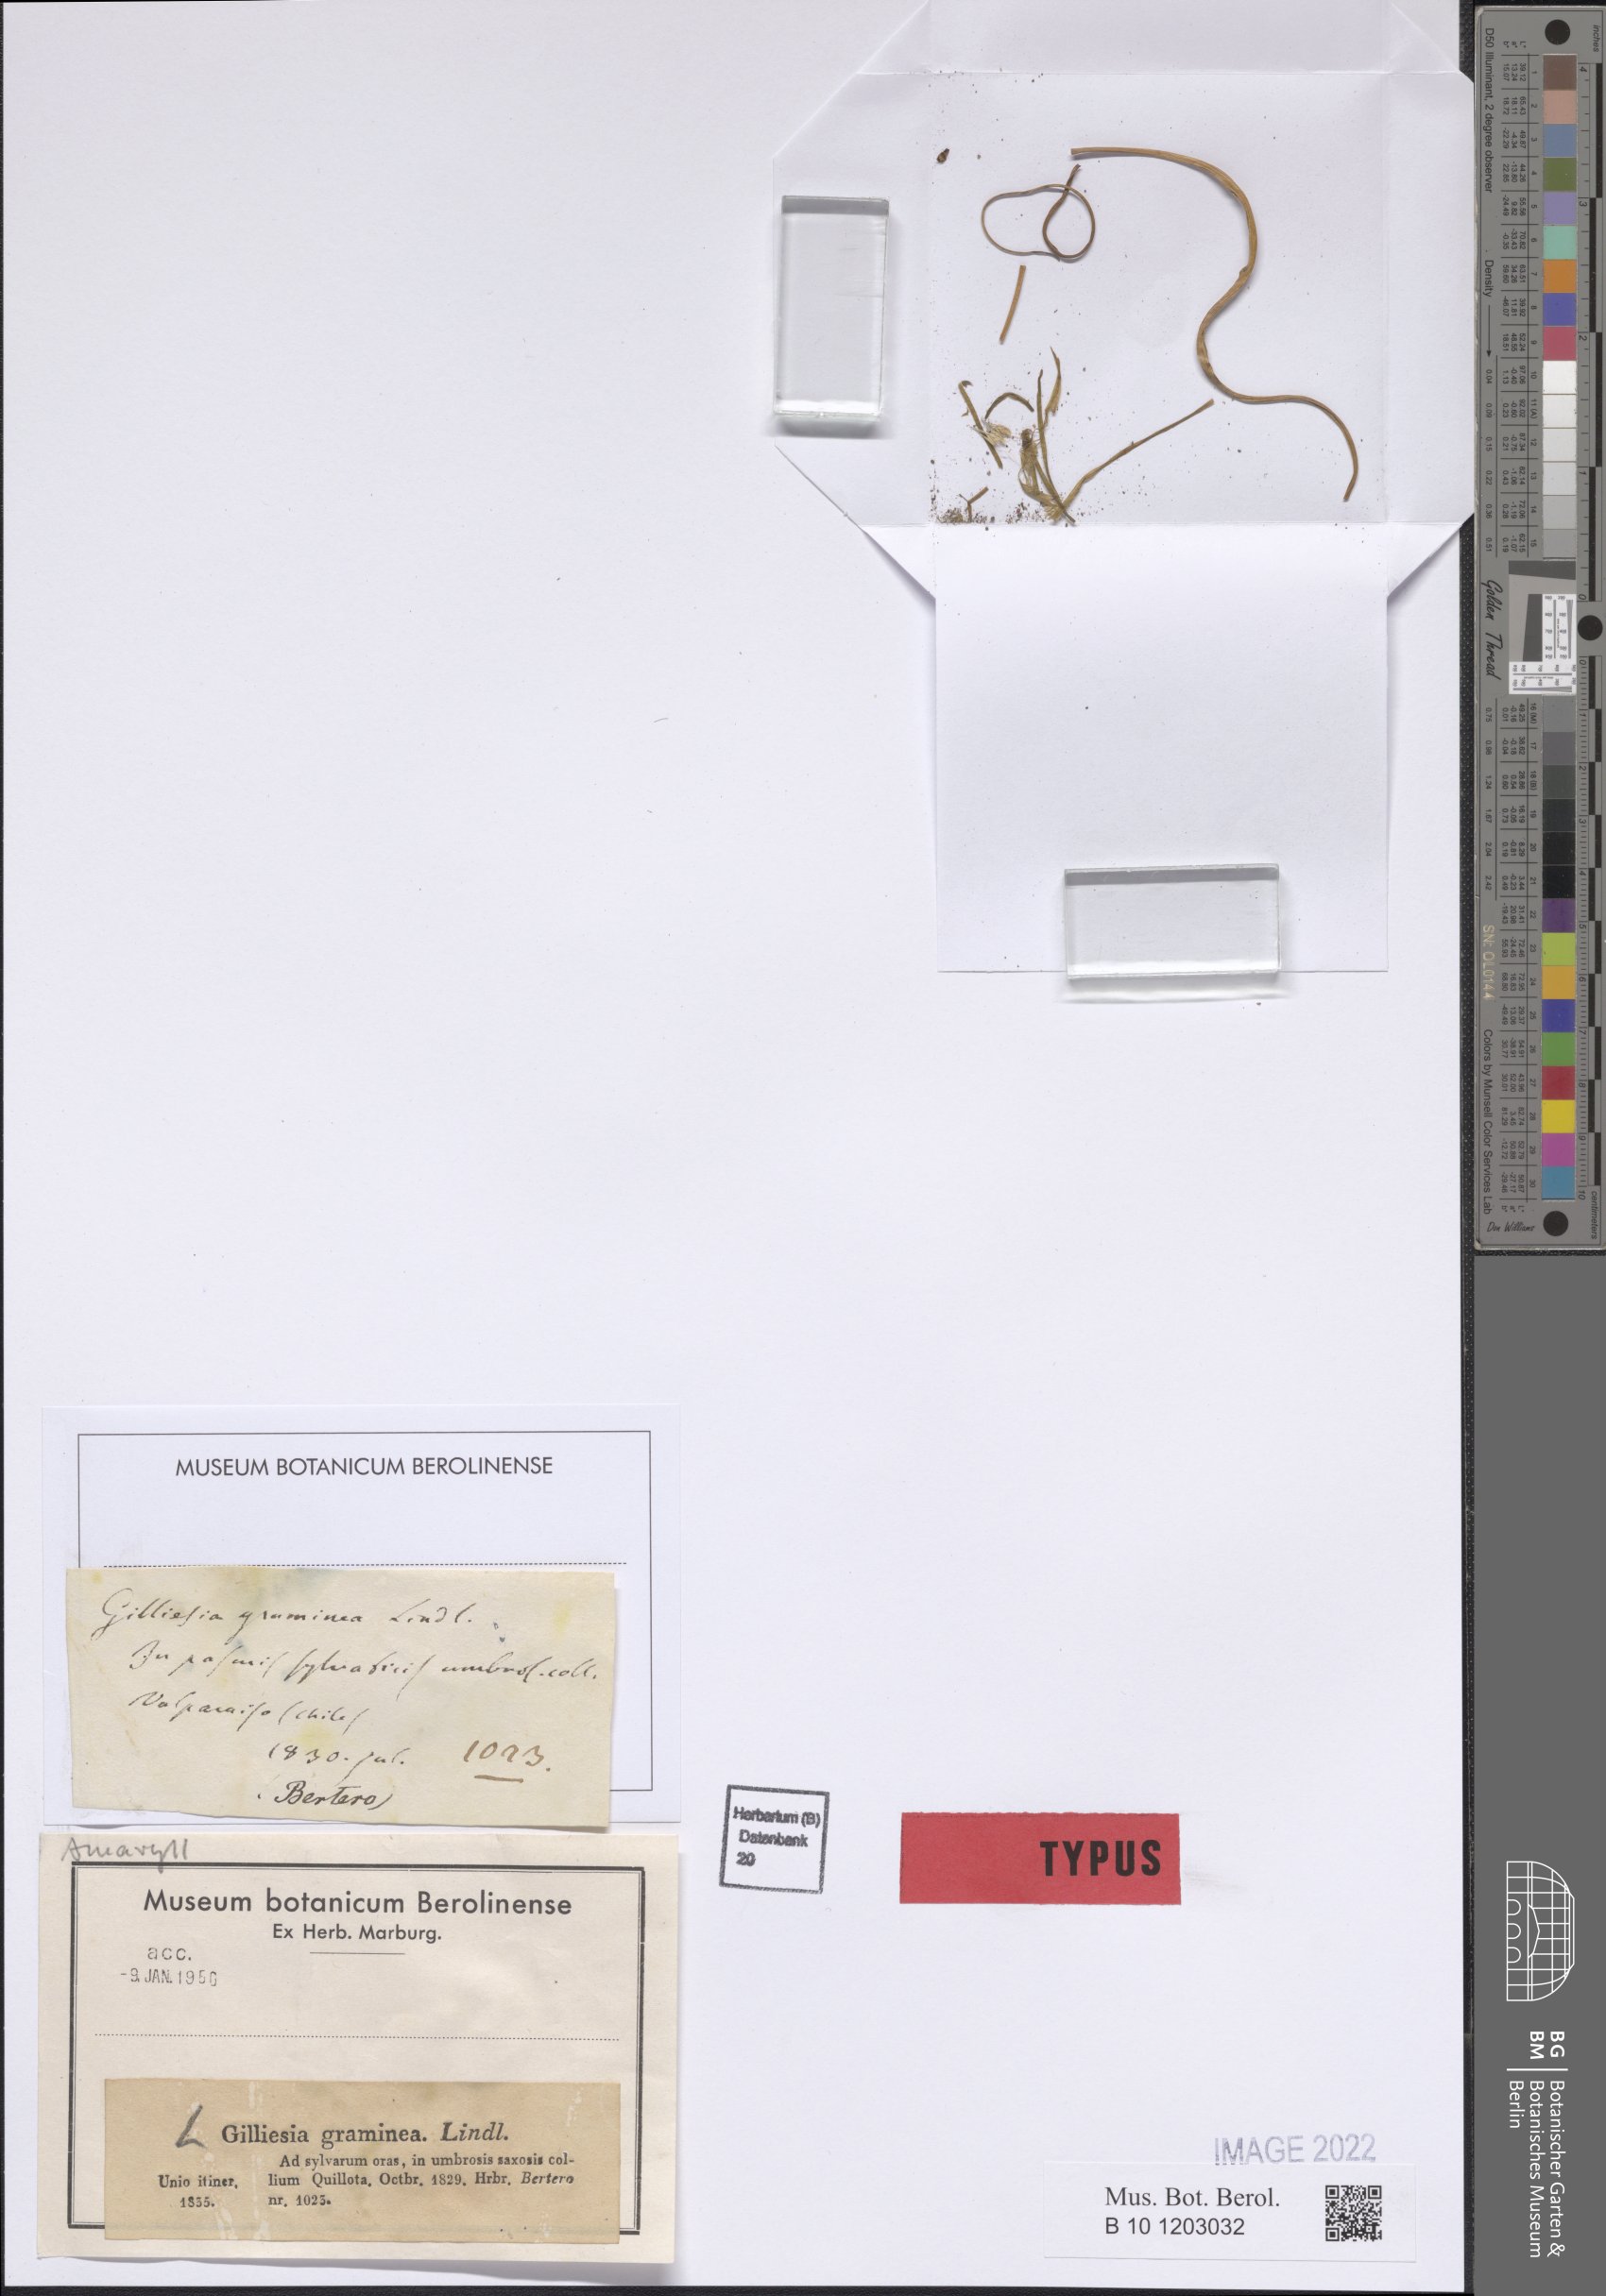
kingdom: Plantae
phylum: Tracheophyta
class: Liliopsida
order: Asparagales
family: Amaryllidaceae
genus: Gilliesia
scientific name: Gilliesia graminea
